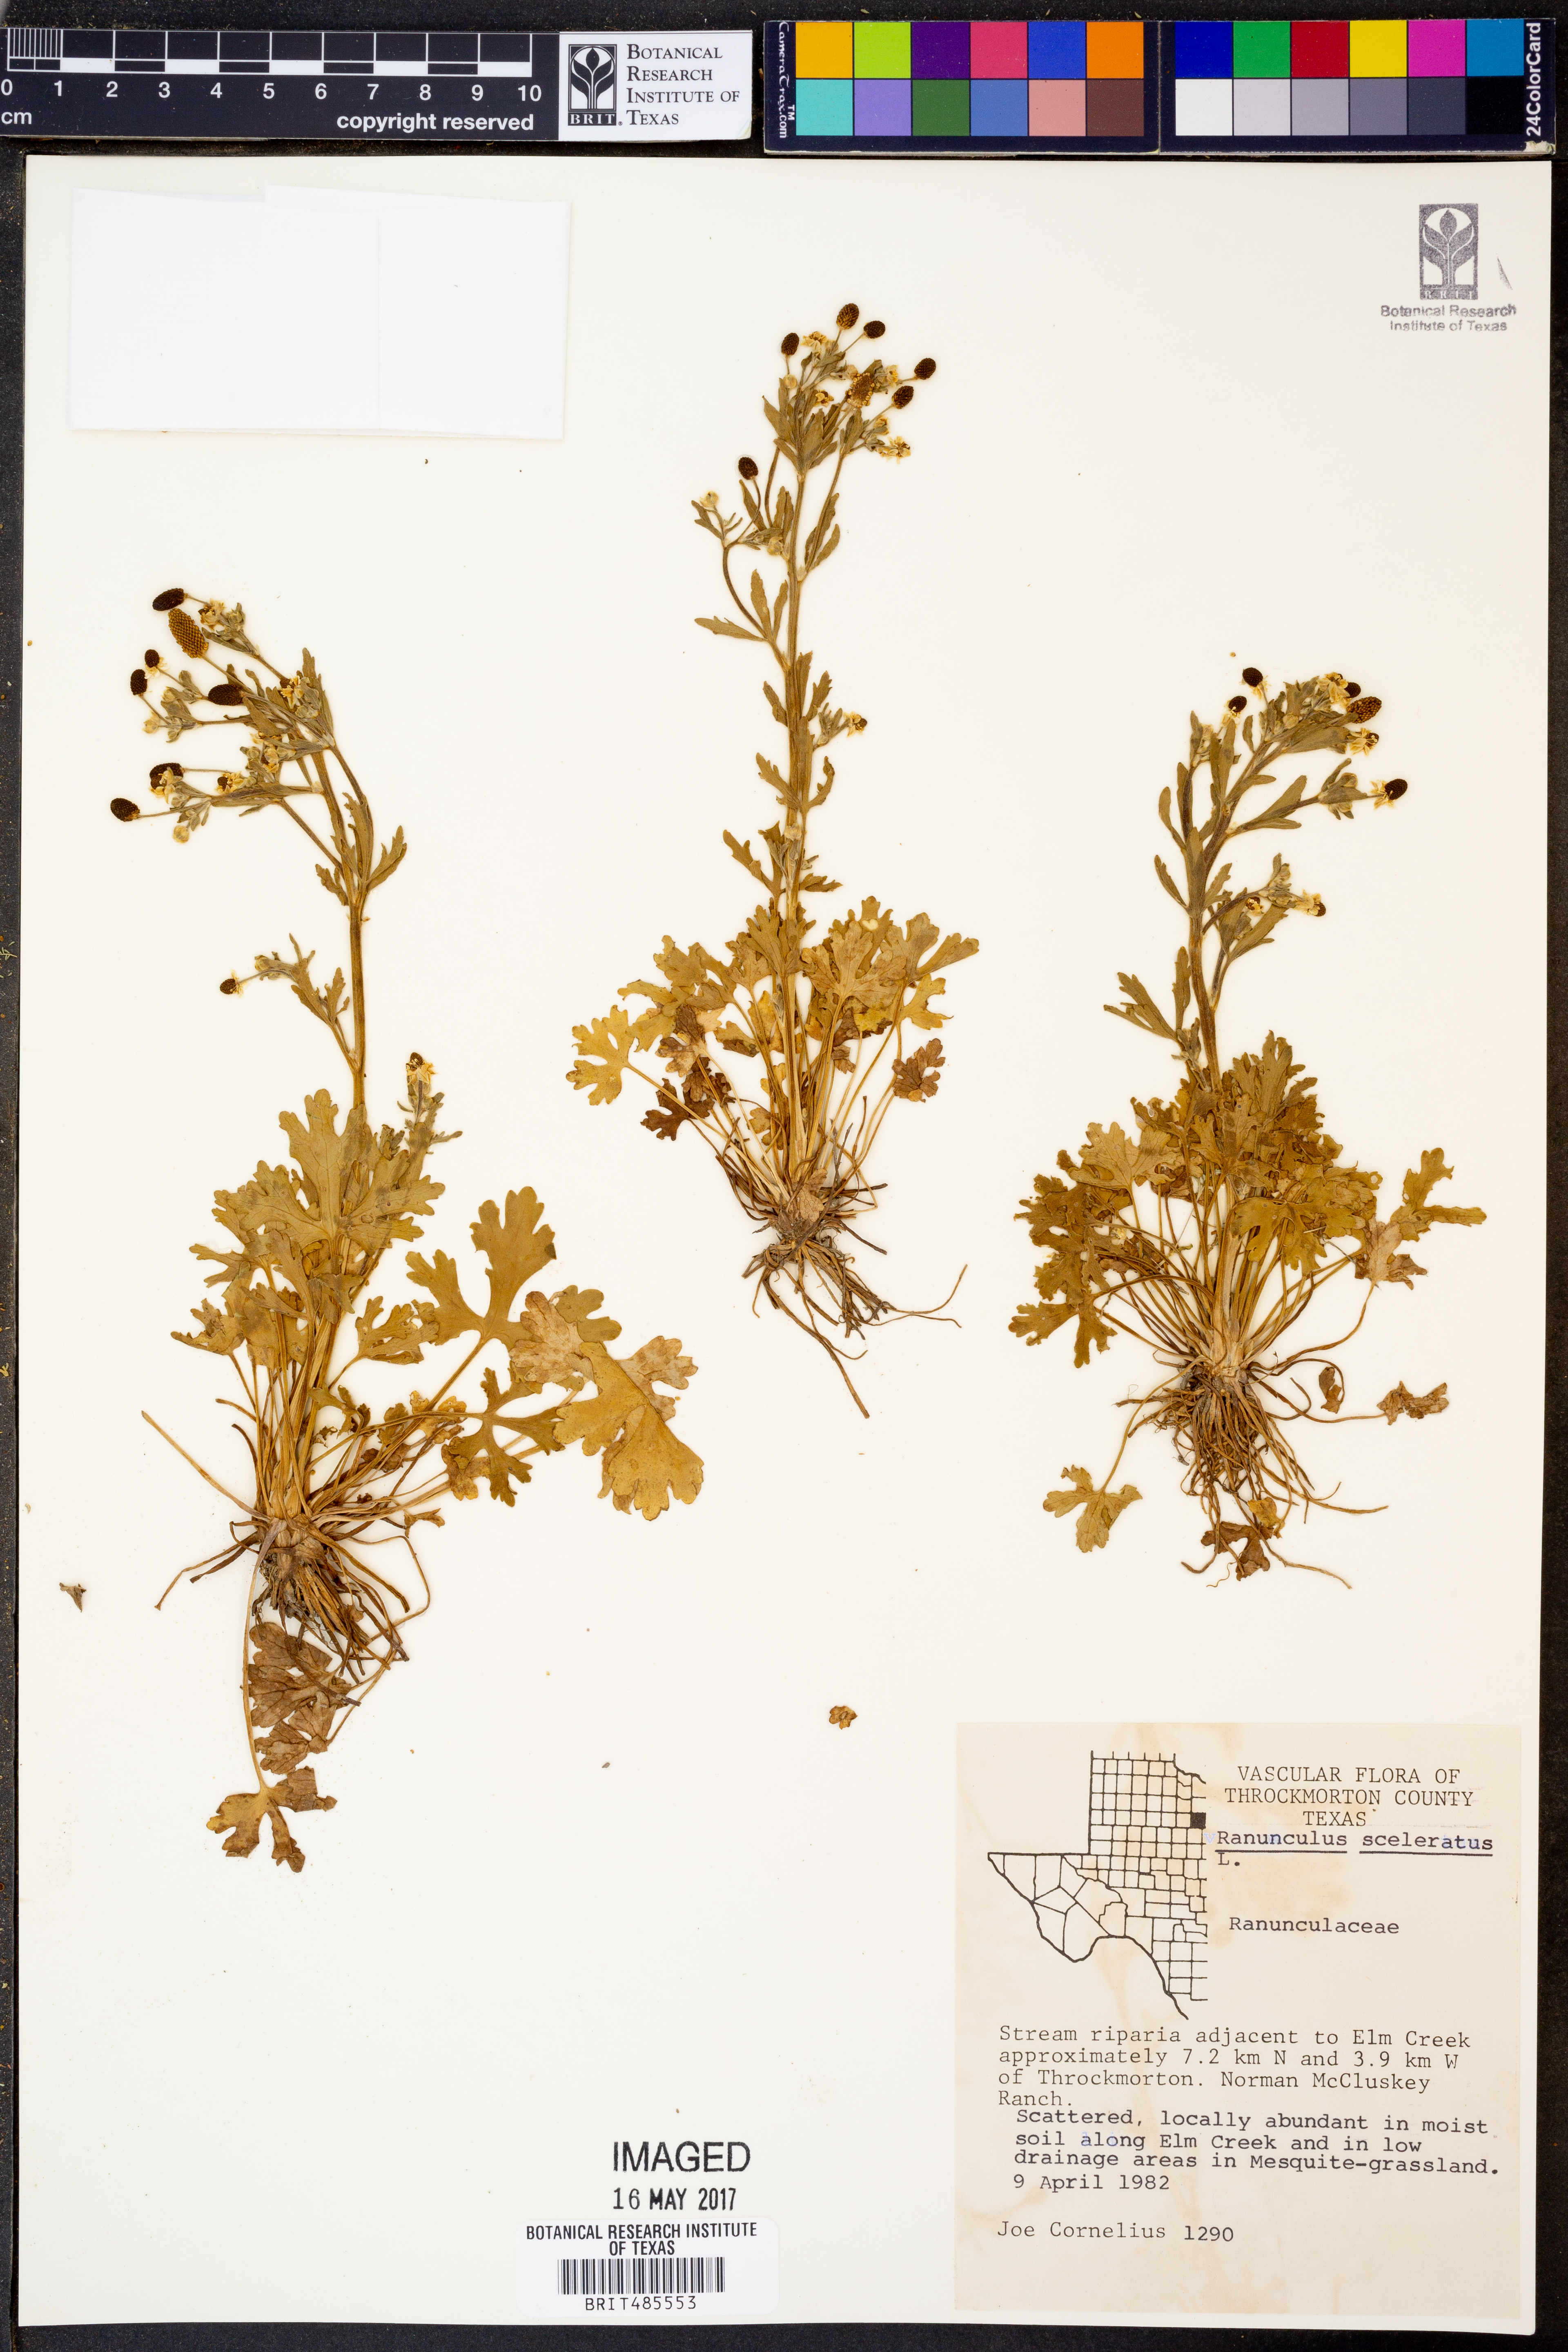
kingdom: Plantae
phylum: Tracheophyta
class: Magnoliopsida
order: Ranunculales
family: Ranunculaceae
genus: Ranunculus
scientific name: Ranunculus sceleratus
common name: Celery-leaved buttercup
